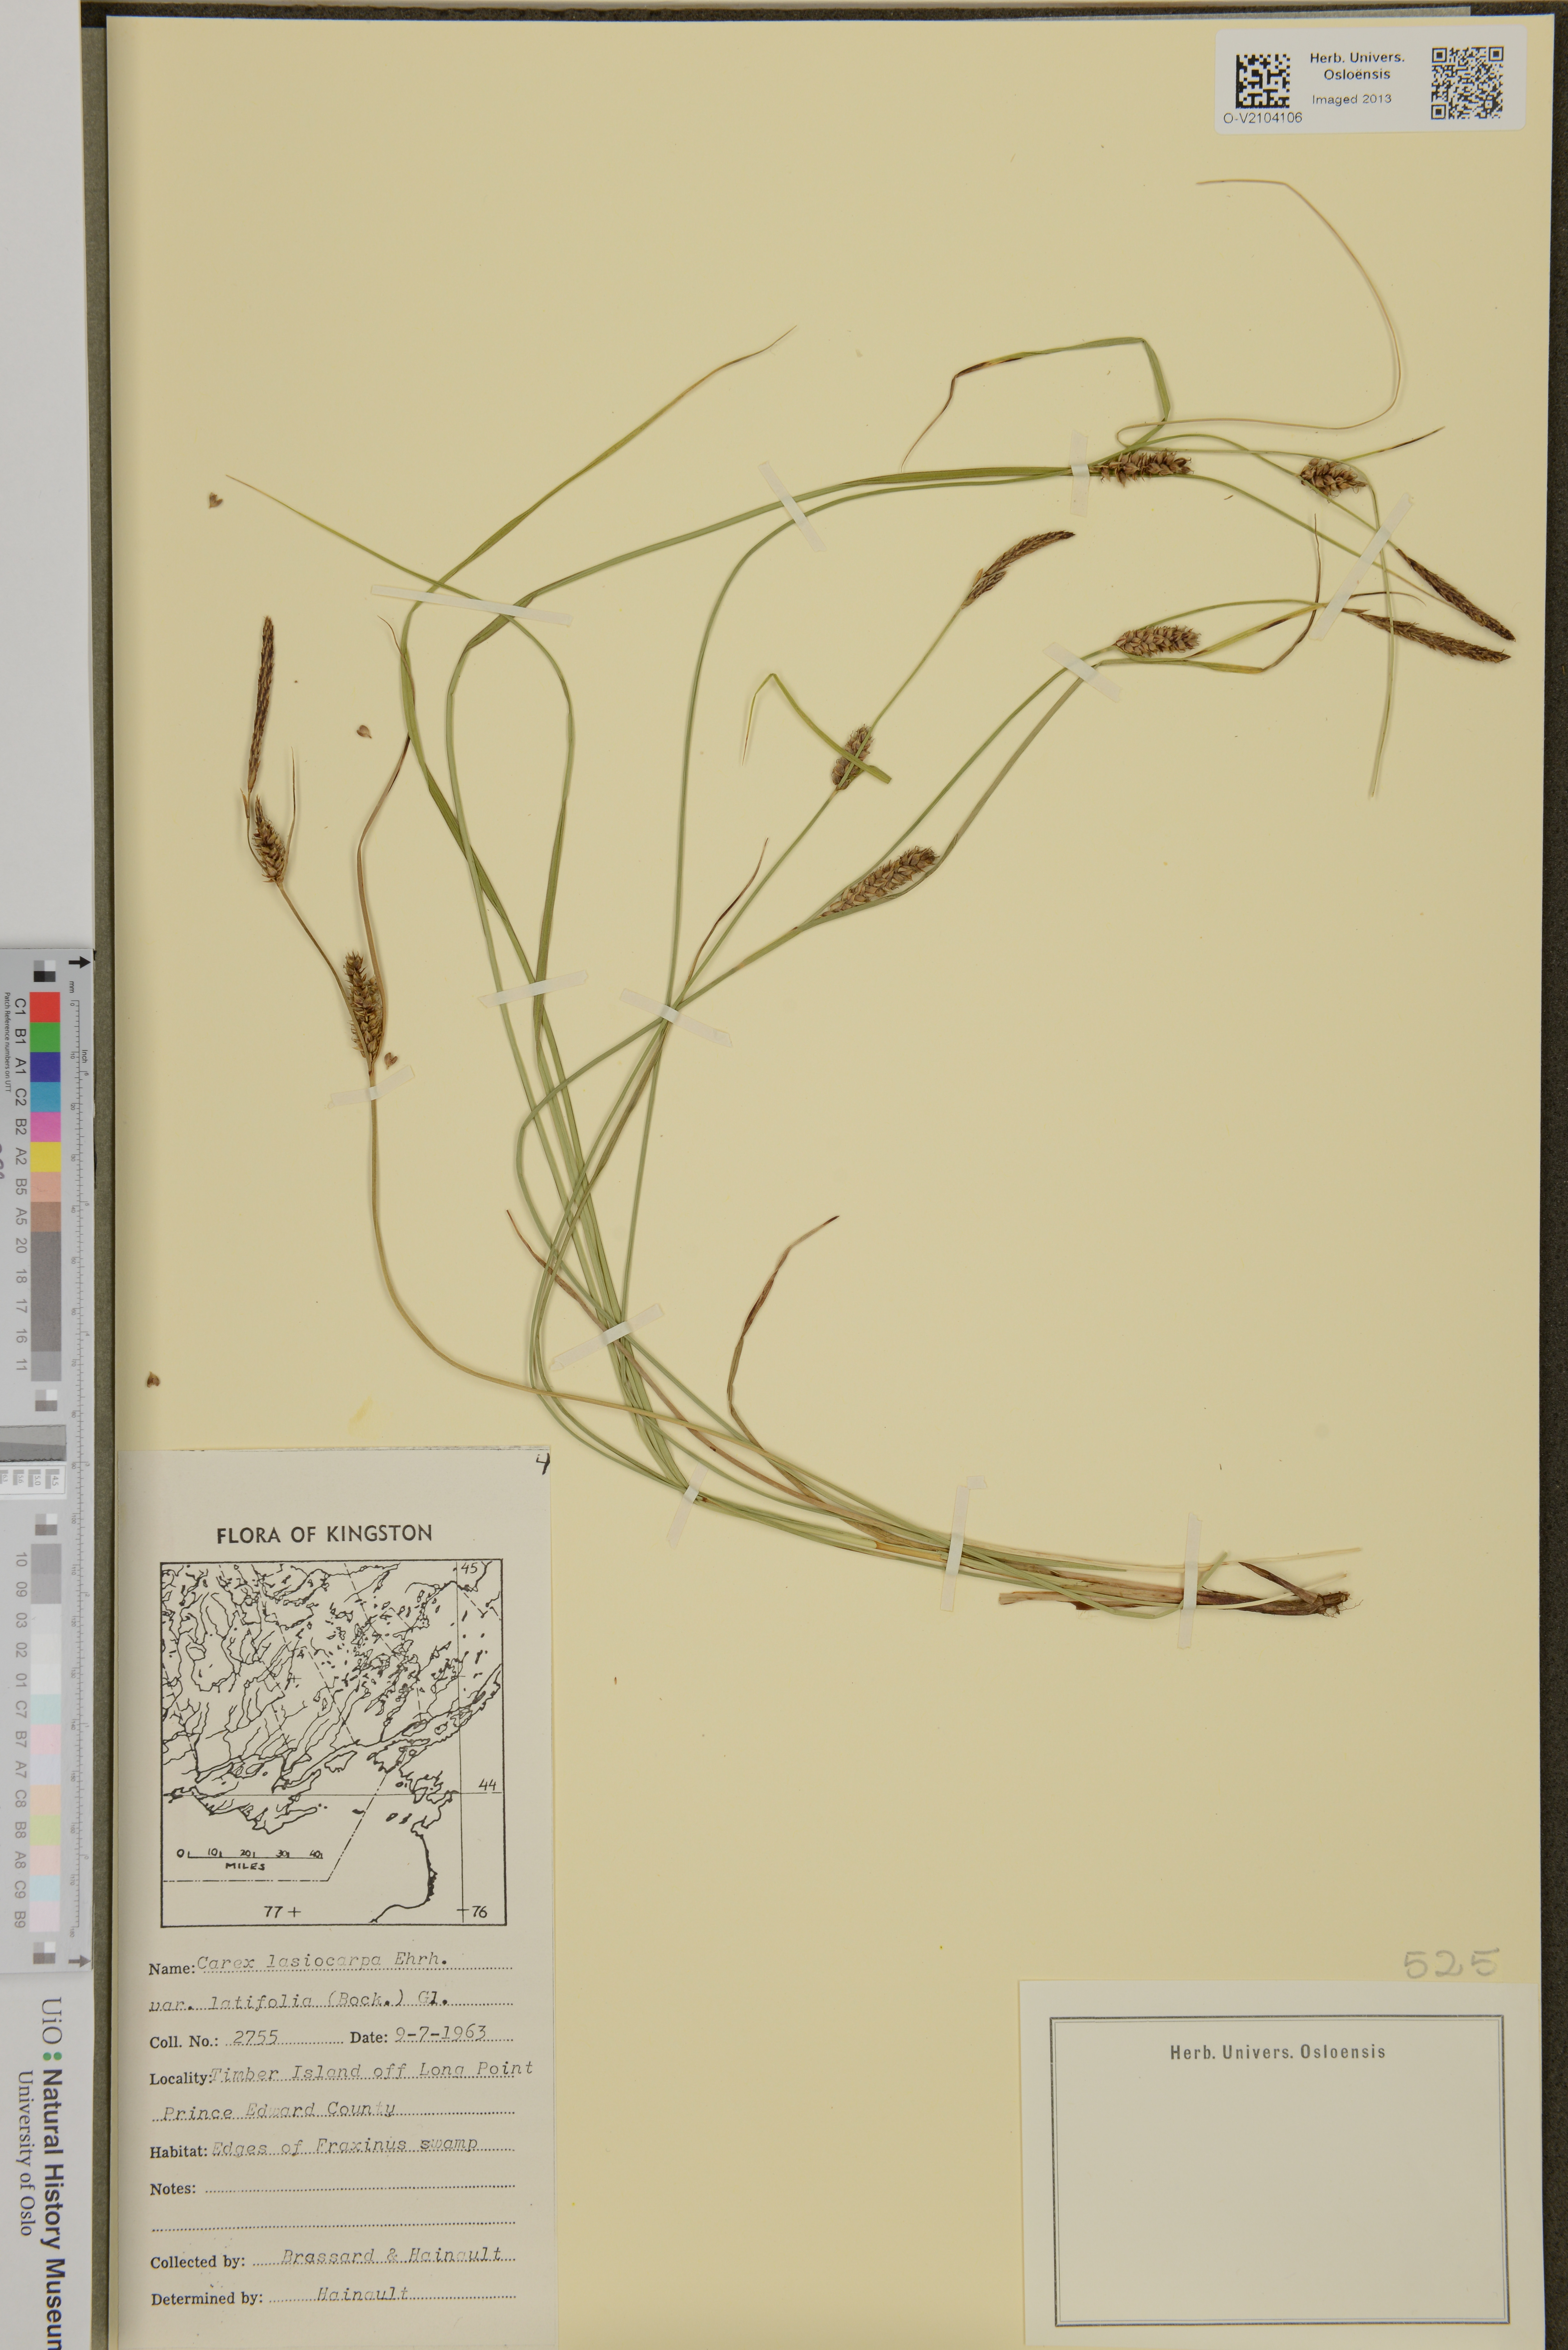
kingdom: Plantae
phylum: Tracheophyta
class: Liliopsida
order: Poales
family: Cyperaceae
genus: Carex
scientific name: Carex lasiocarpa
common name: Slender sedge
